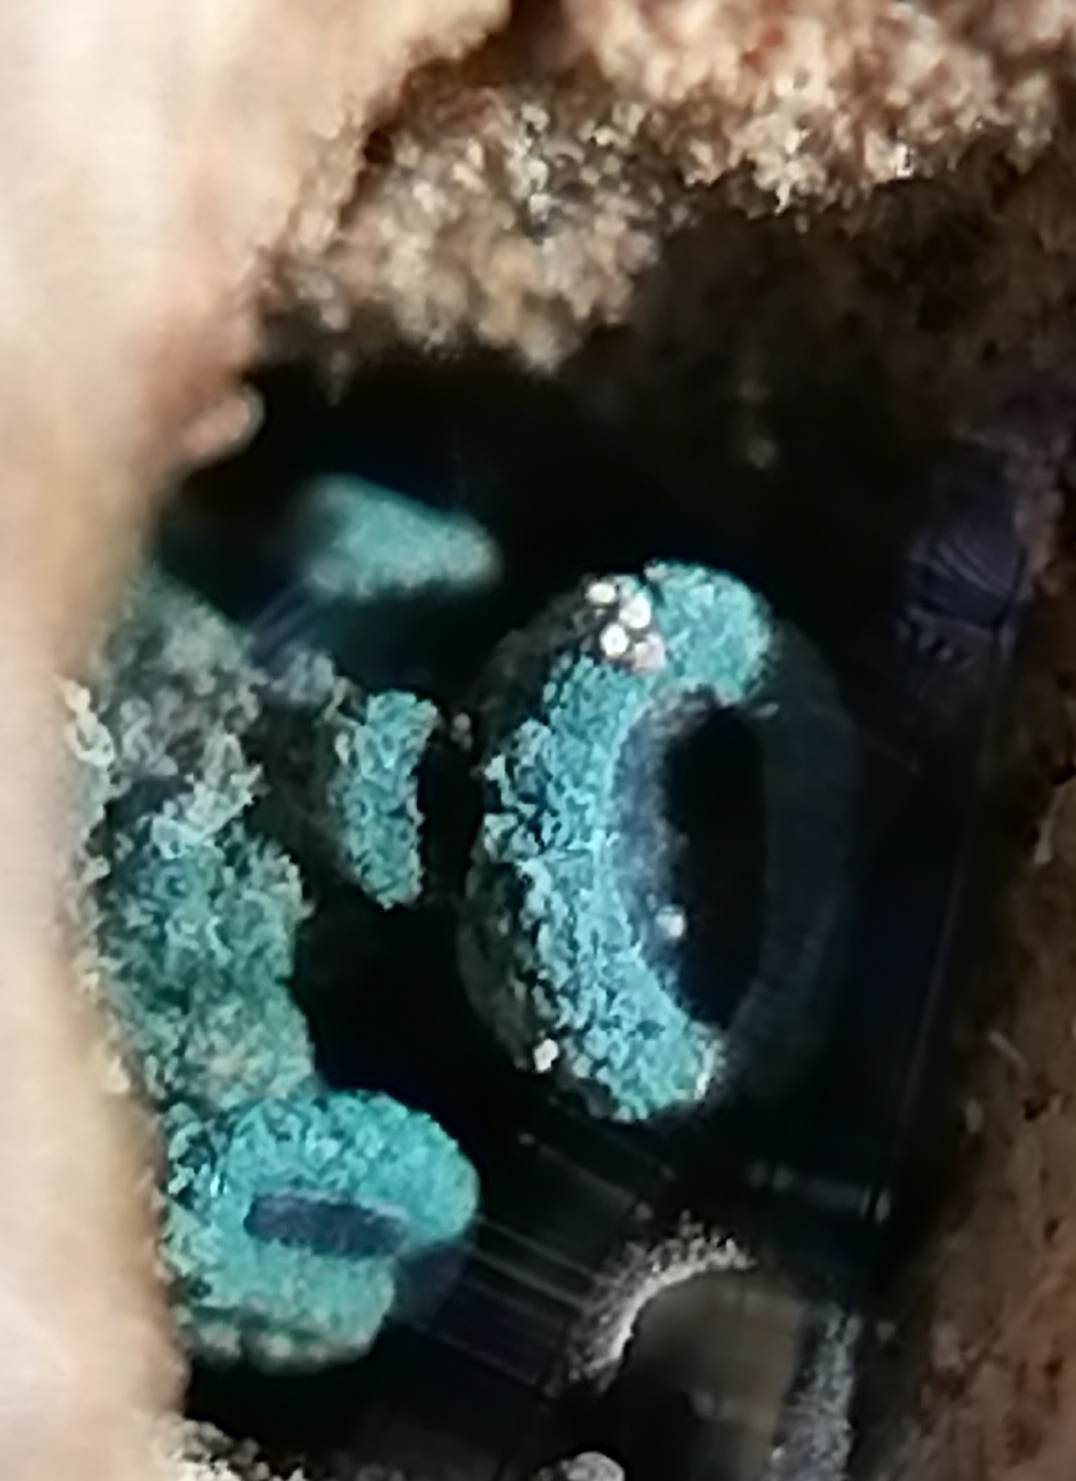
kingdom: Fungi
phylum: Ascomycota
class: Leotiomycetes
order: Helotiales
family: Chlorociboriaceae
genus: Chlorociboria
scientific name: Chlorociboria aeruginascens
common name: almindelig grønskive
